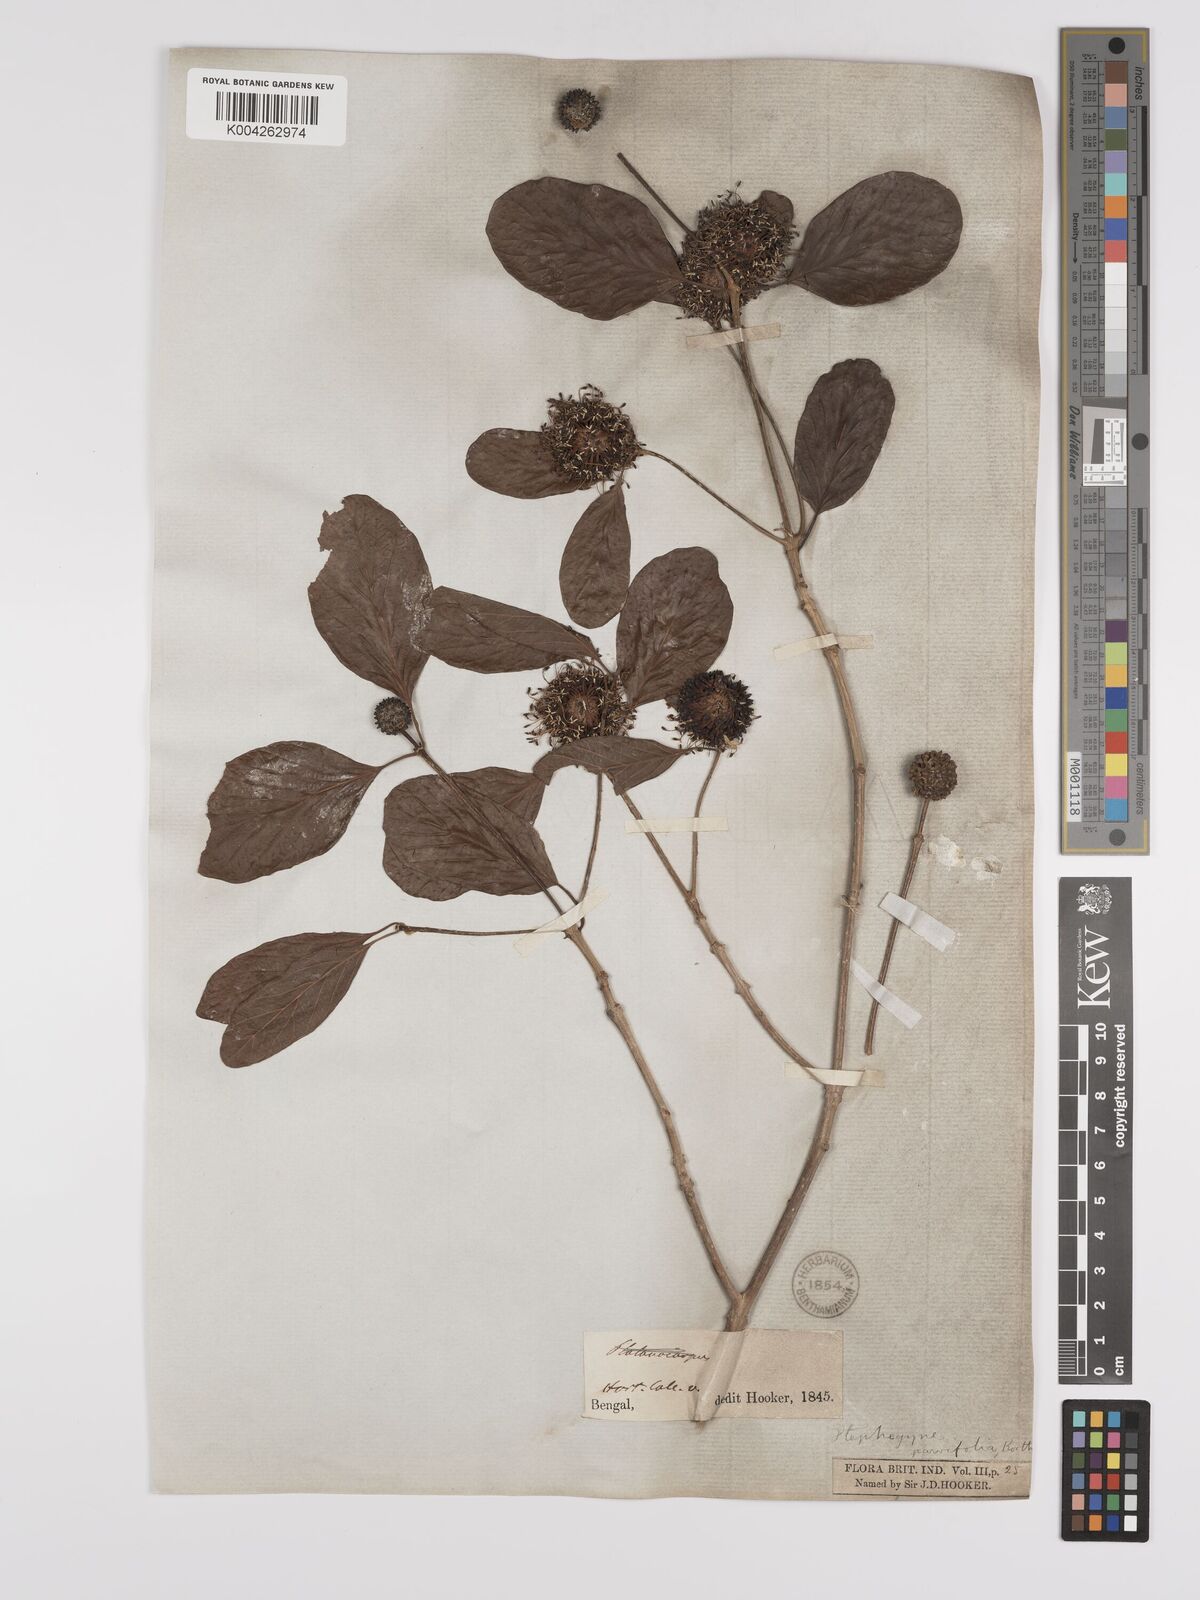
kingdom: Plantae
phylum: Tracheophyta
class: Magnoliopsida
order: Gentianales
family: Rubiaceae
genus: Mitragyna
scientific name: Mitragyna parvifolia
